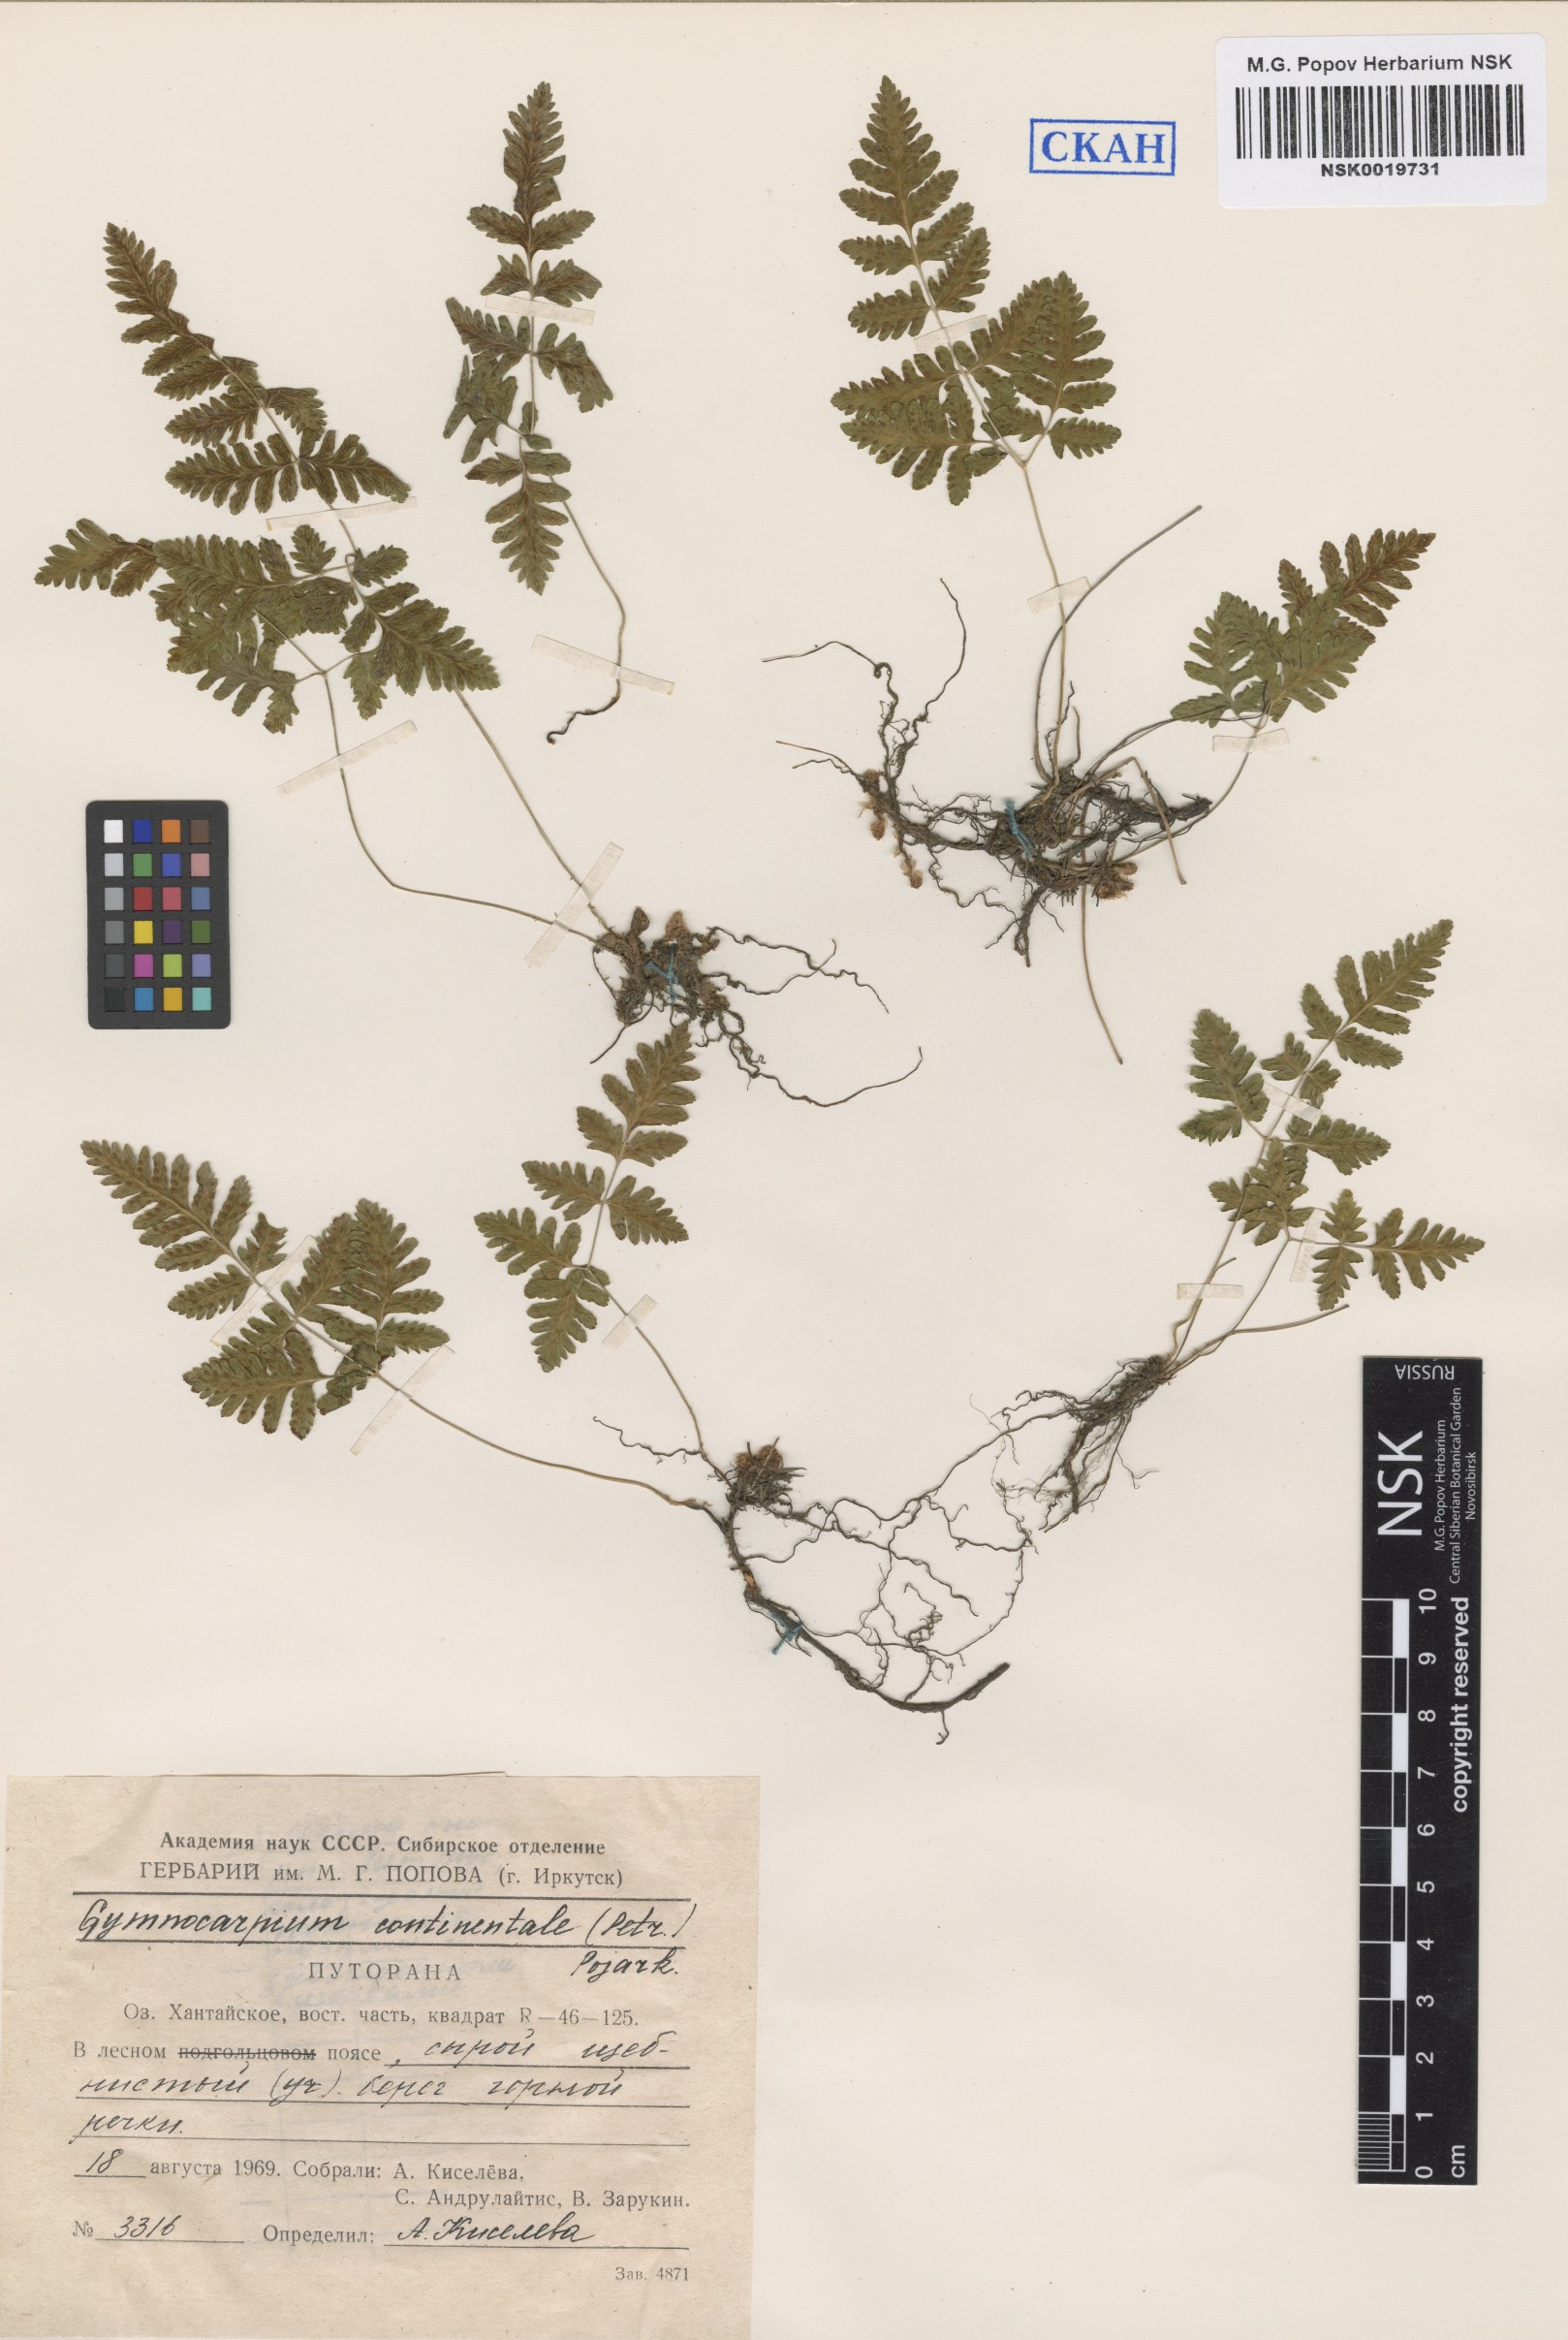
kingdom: Plantae
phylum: Tracheophyta
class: Polypodiopsida
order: Polypodiales
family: Cystopteridaceae
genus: Gymnocarpium
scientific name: Gymnocarpium continentale
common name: Asian oak fern
